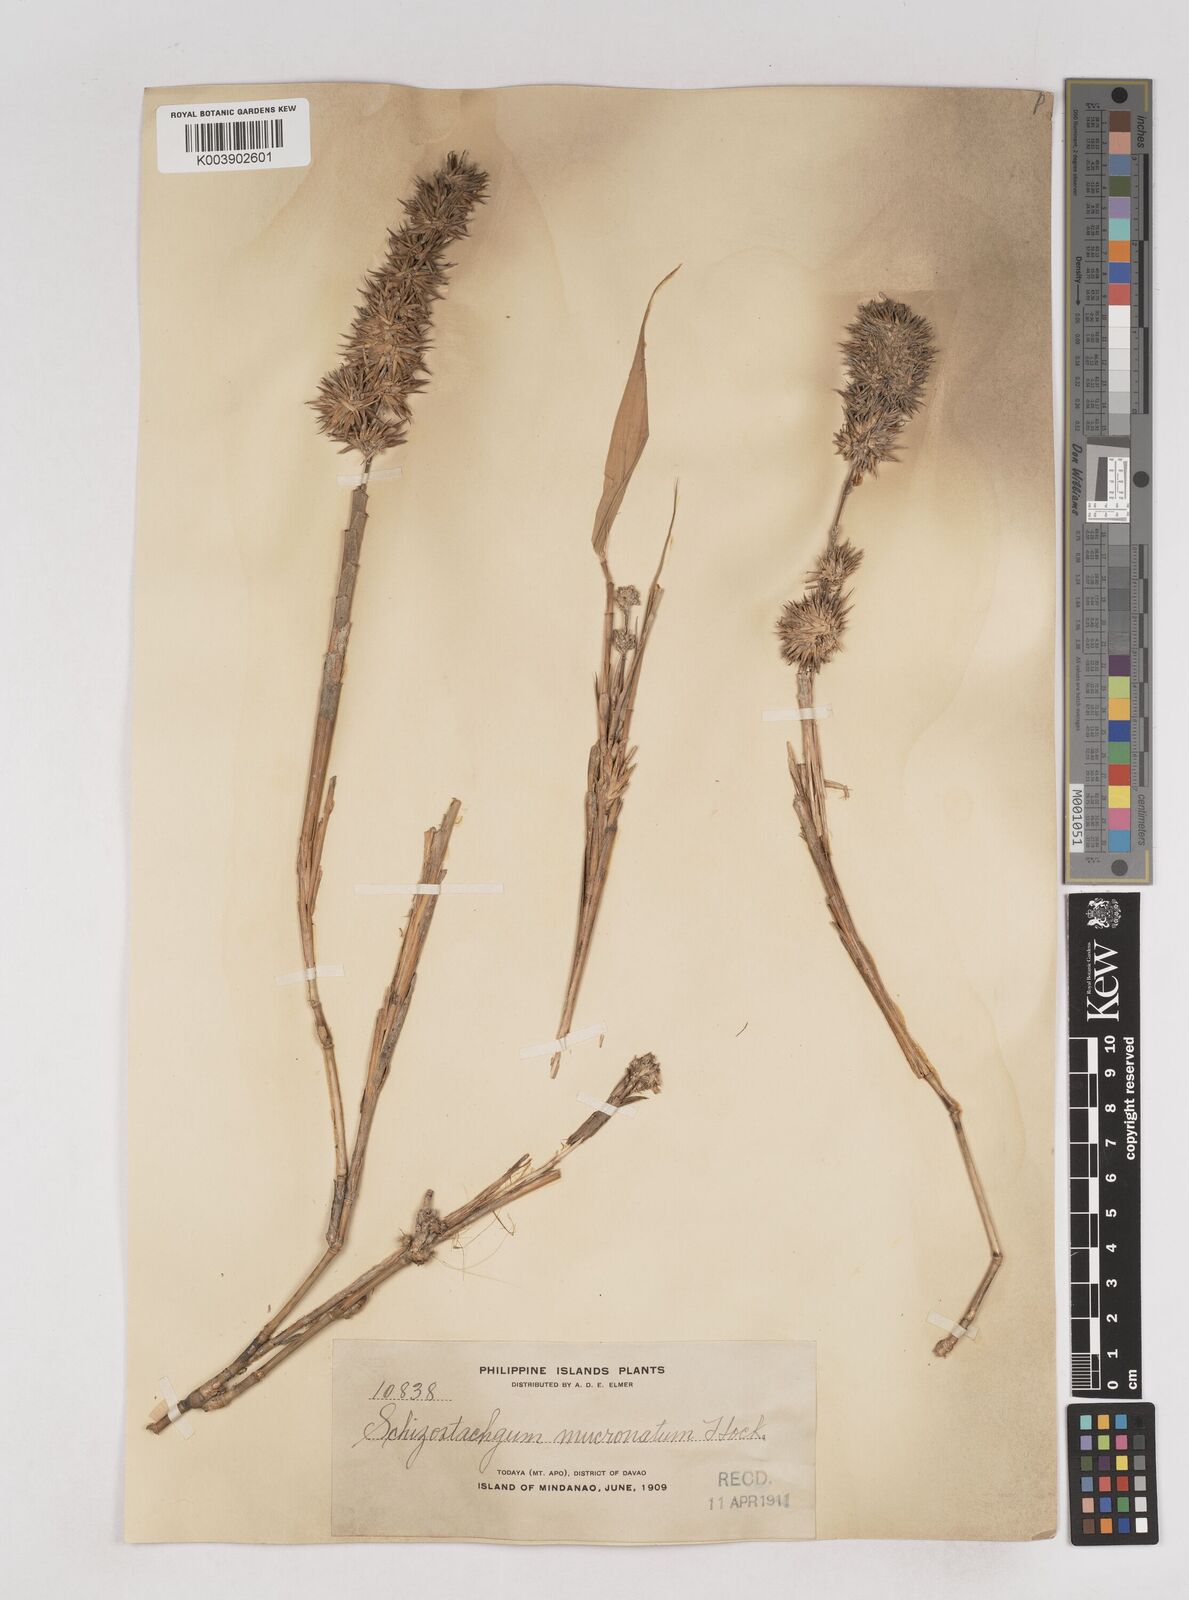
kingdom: Plantae
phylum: Tracheophyta
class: Liliopsida
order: Poales
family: Poaceae
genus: Schizostachyum
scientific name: Schizostachyum brachycladum
